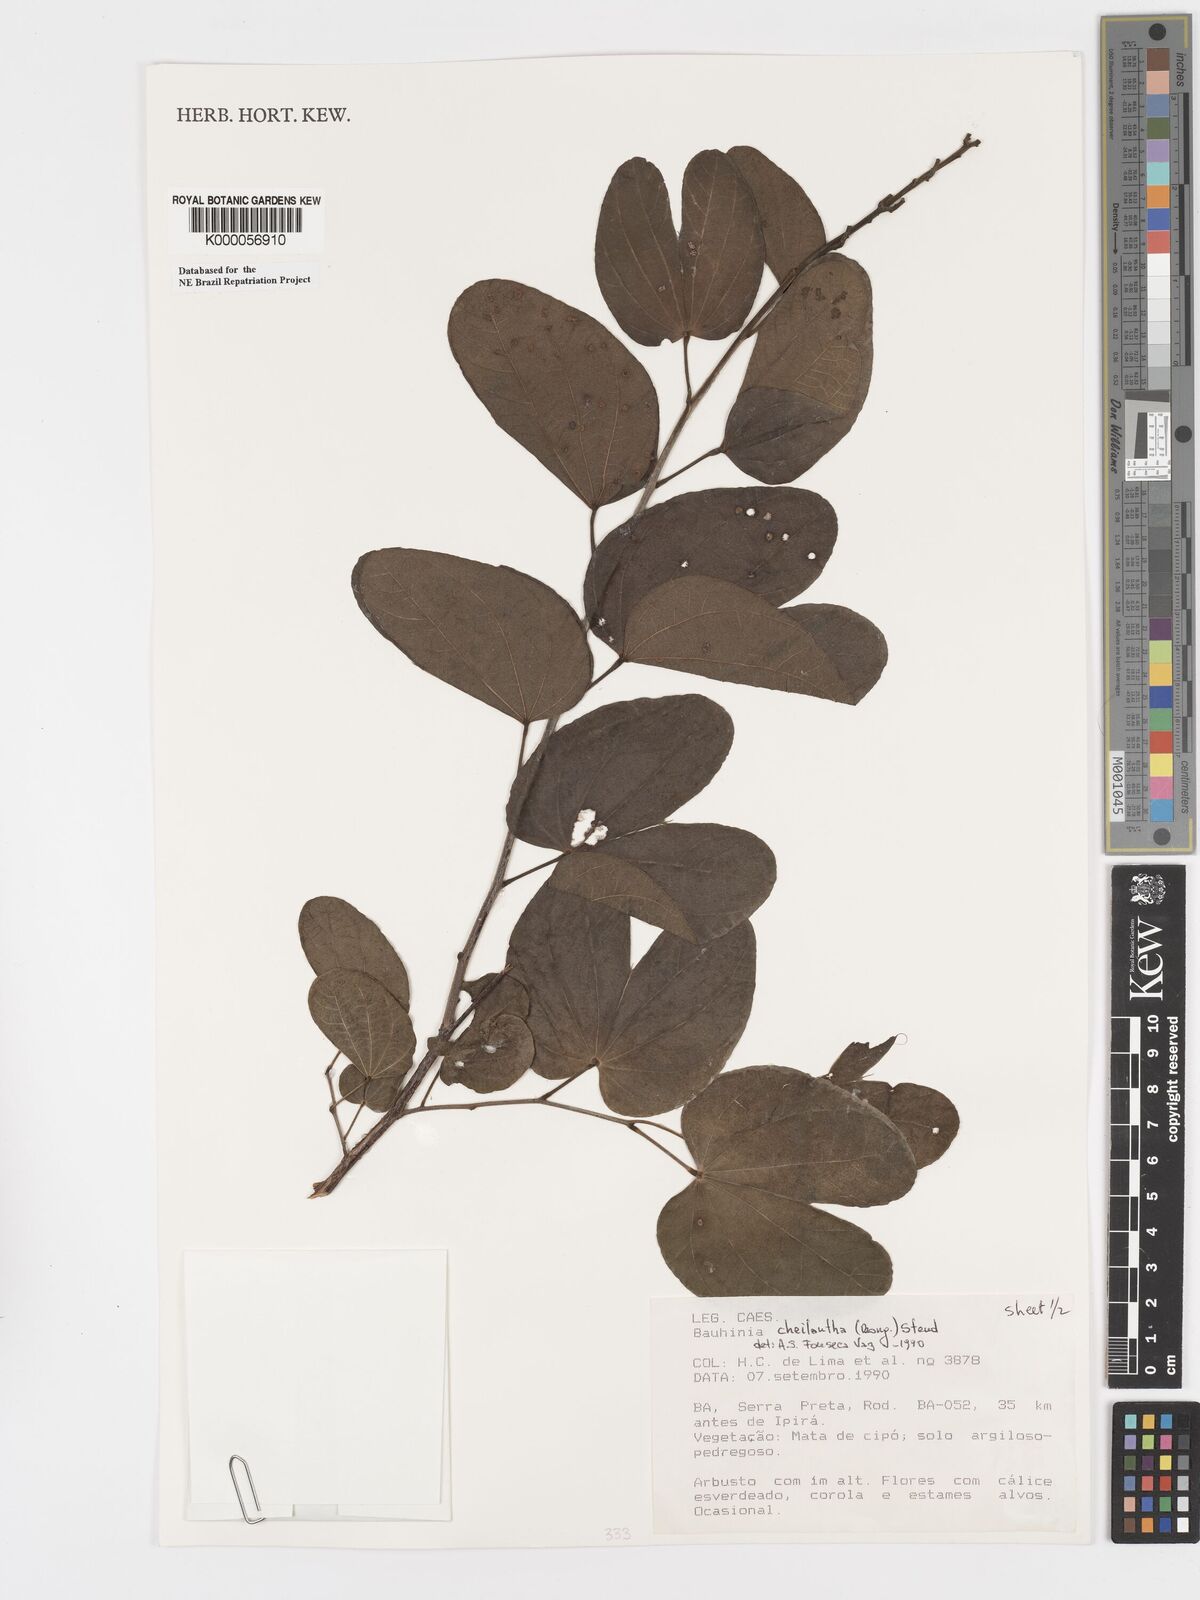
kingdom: Plantae
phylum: Tracheophyta
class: Magnoliopsida
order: Fabales
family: Fabaceae
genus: Bauhinia
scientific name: Bauhinia cheilantha
